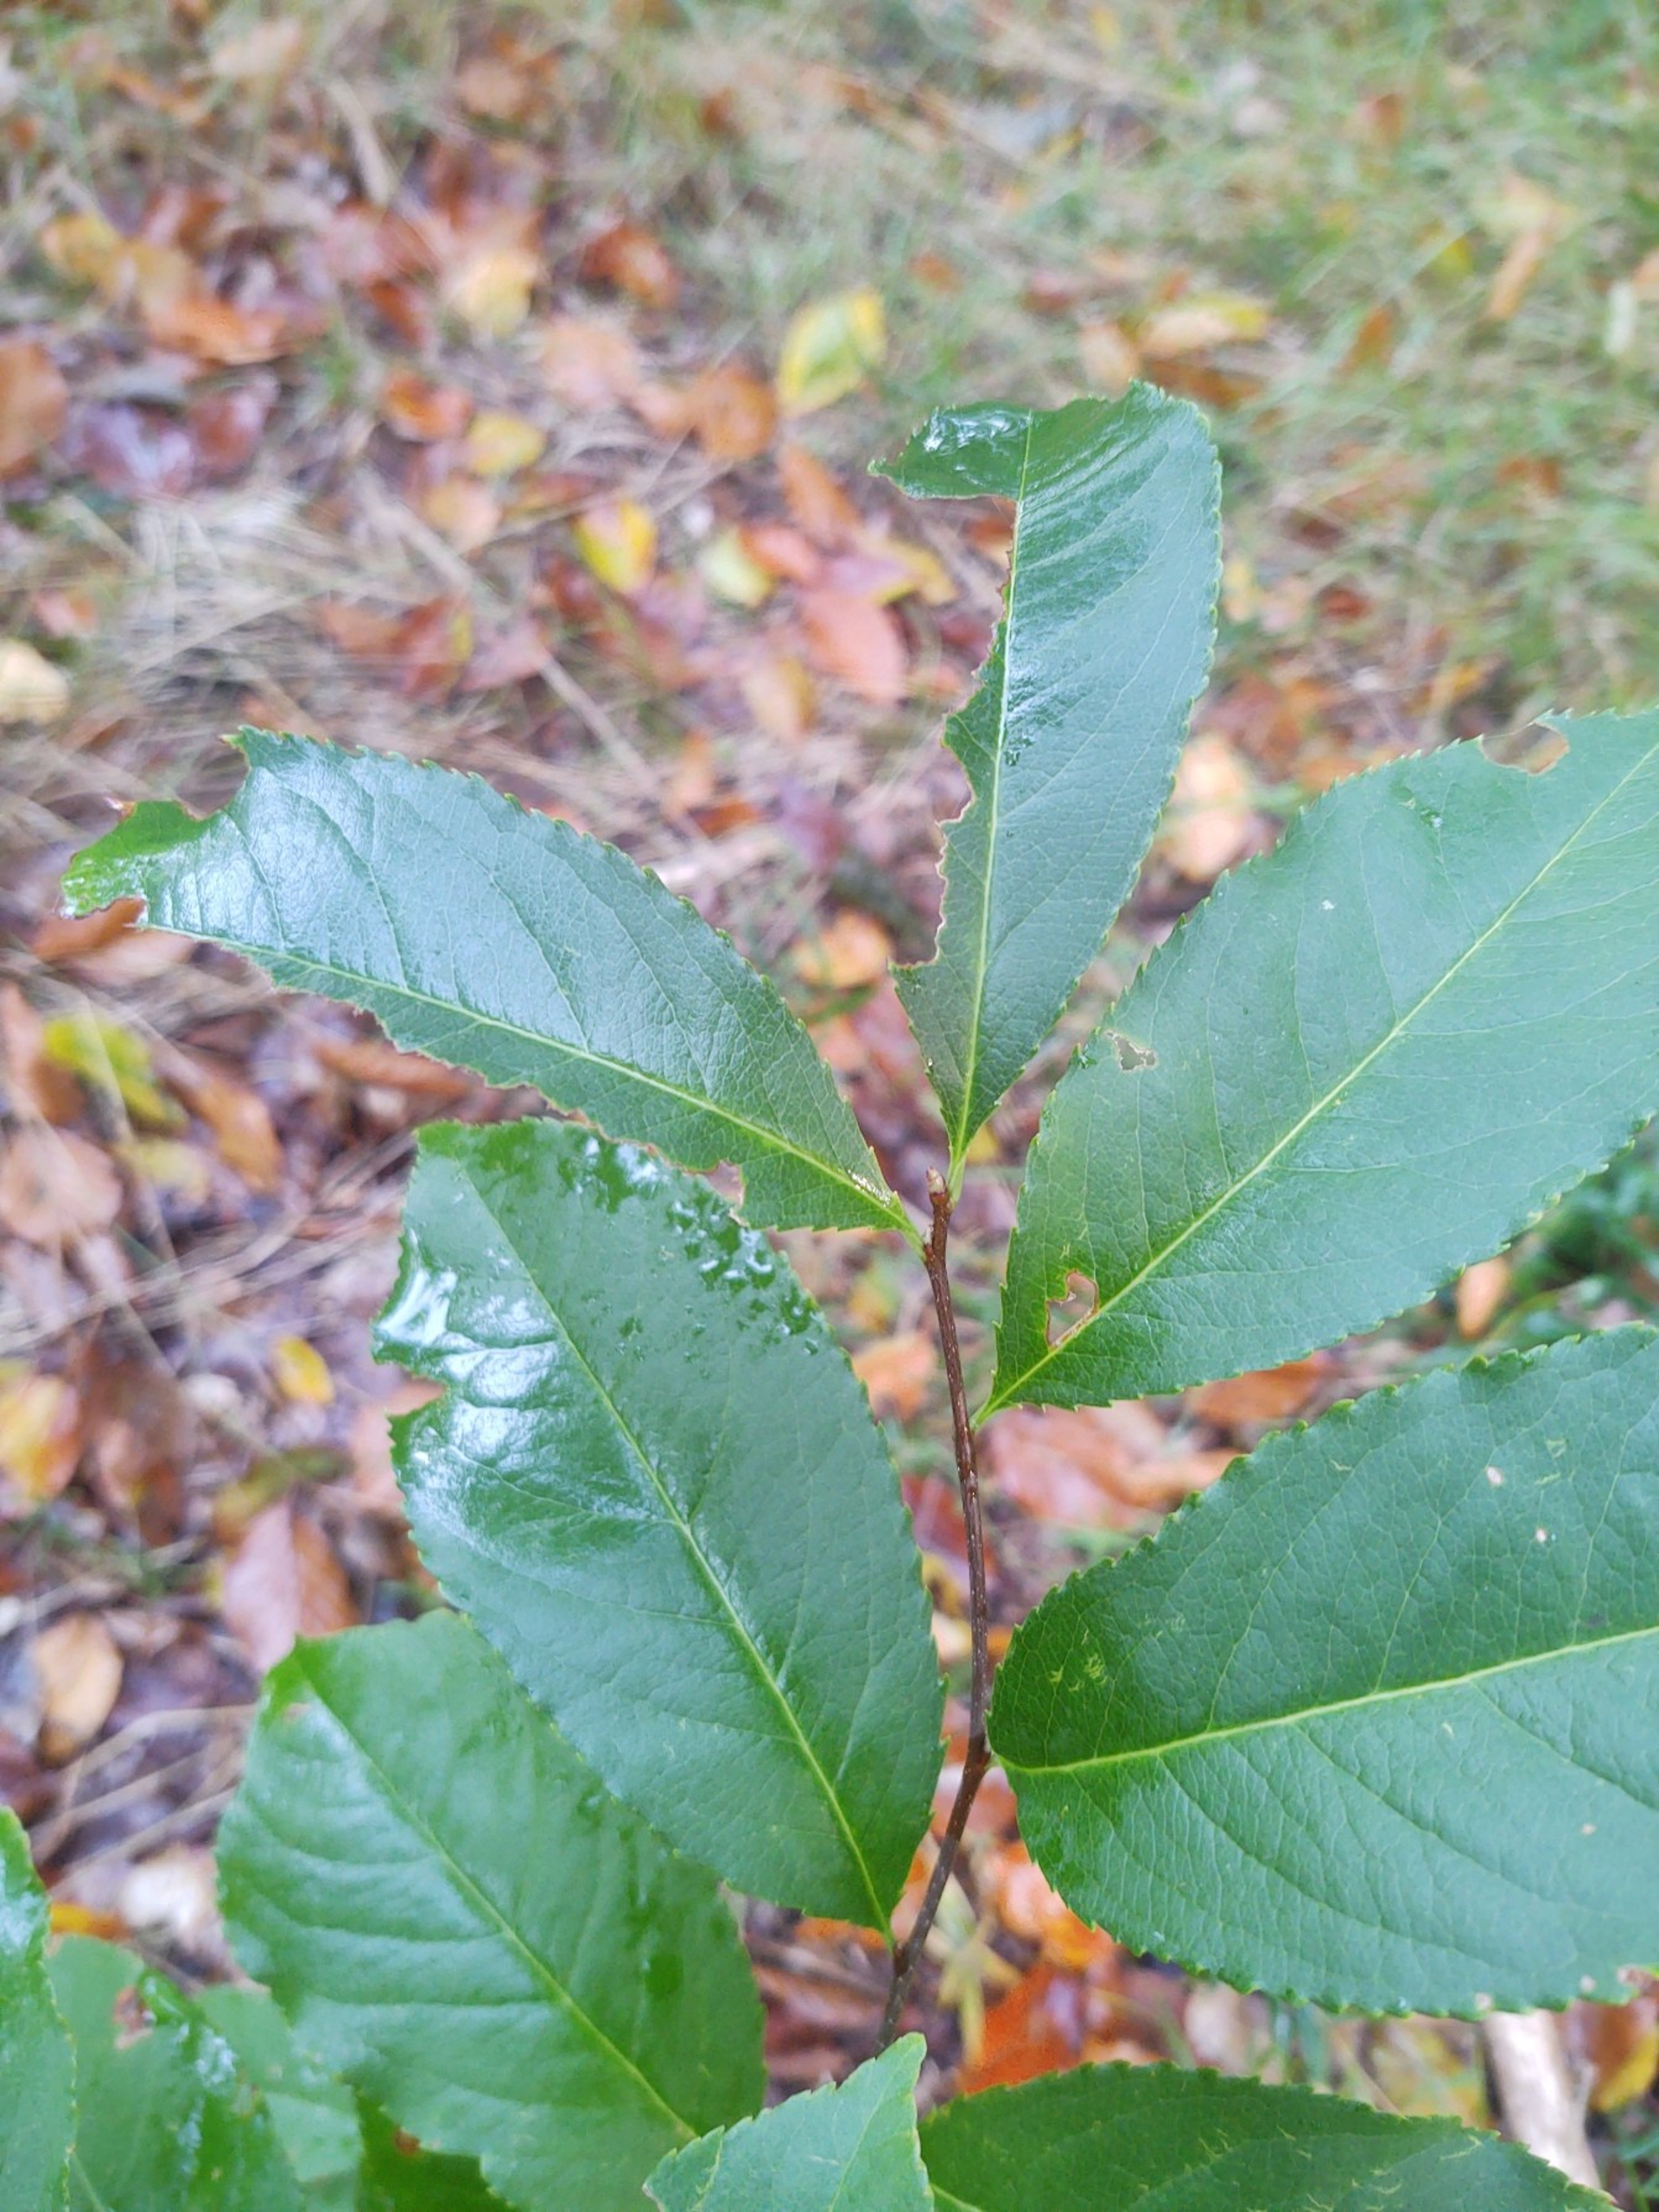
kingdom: Plantae
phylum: Tracheophyta
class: Magnoliopsida
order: Rosales
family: Rosaceae
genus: Prunus
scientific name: Prunus serotina
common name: Glansbladet hæg
